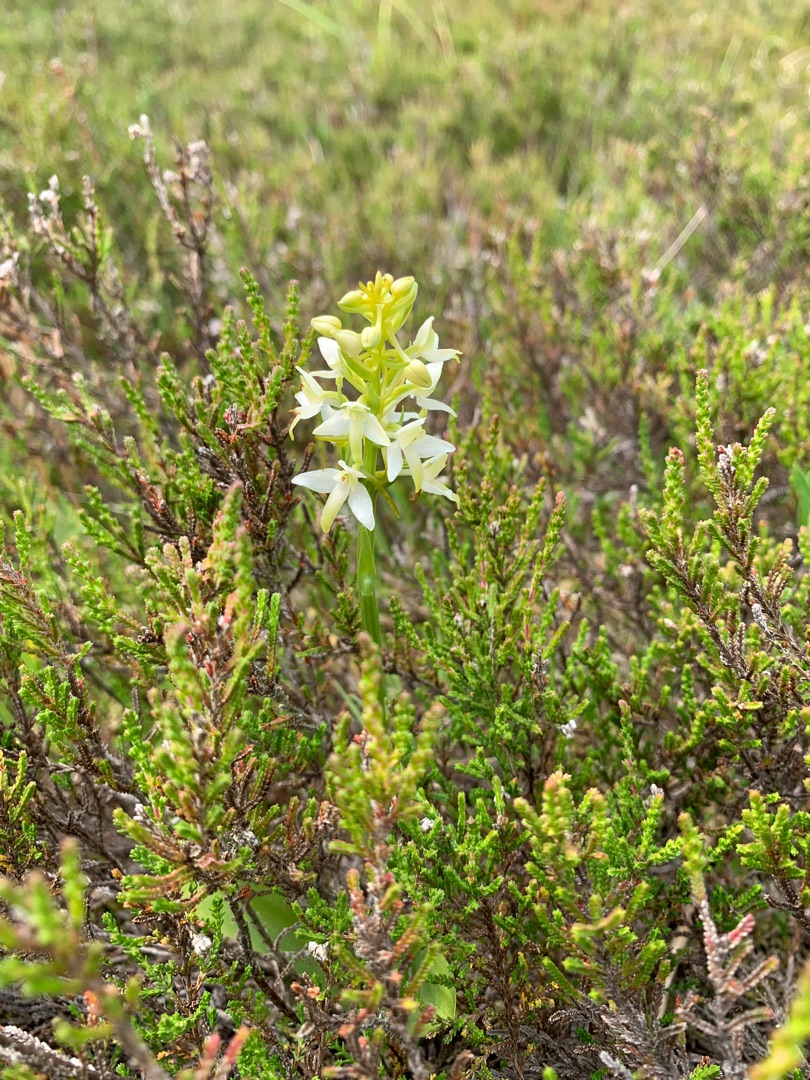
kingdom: Plantae
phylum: Tracheophyta
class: Liliopsida
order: Asparagales
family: Orchidaceae
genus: Platanthera
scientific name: Platanthera bifolia
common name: Bakke-gøgelilje
